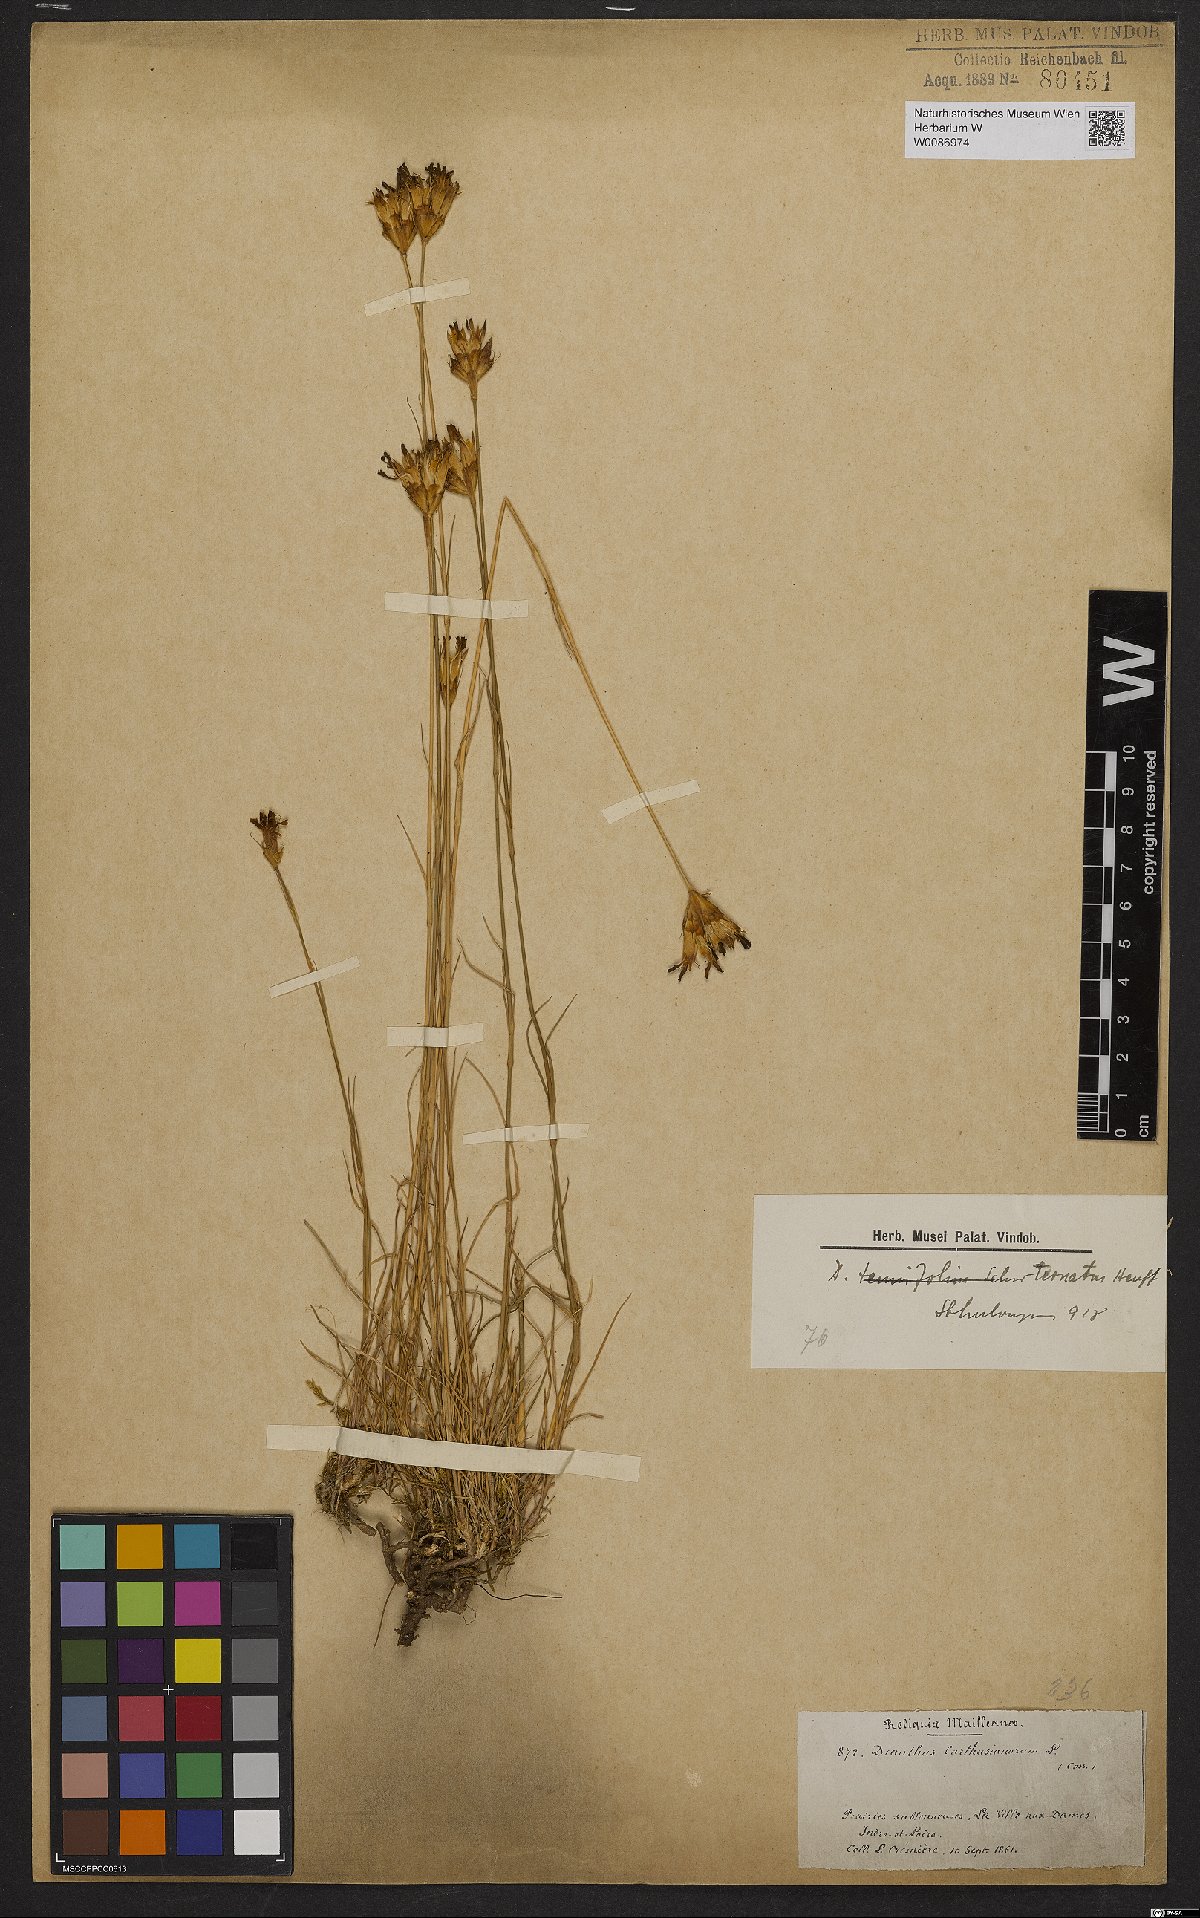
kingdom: Plantae
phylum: Tracheophyta
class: Magnoliopsida
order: Caryophyllales
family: Caryophyllaceae
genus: Dianthus
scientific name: Dianthus
